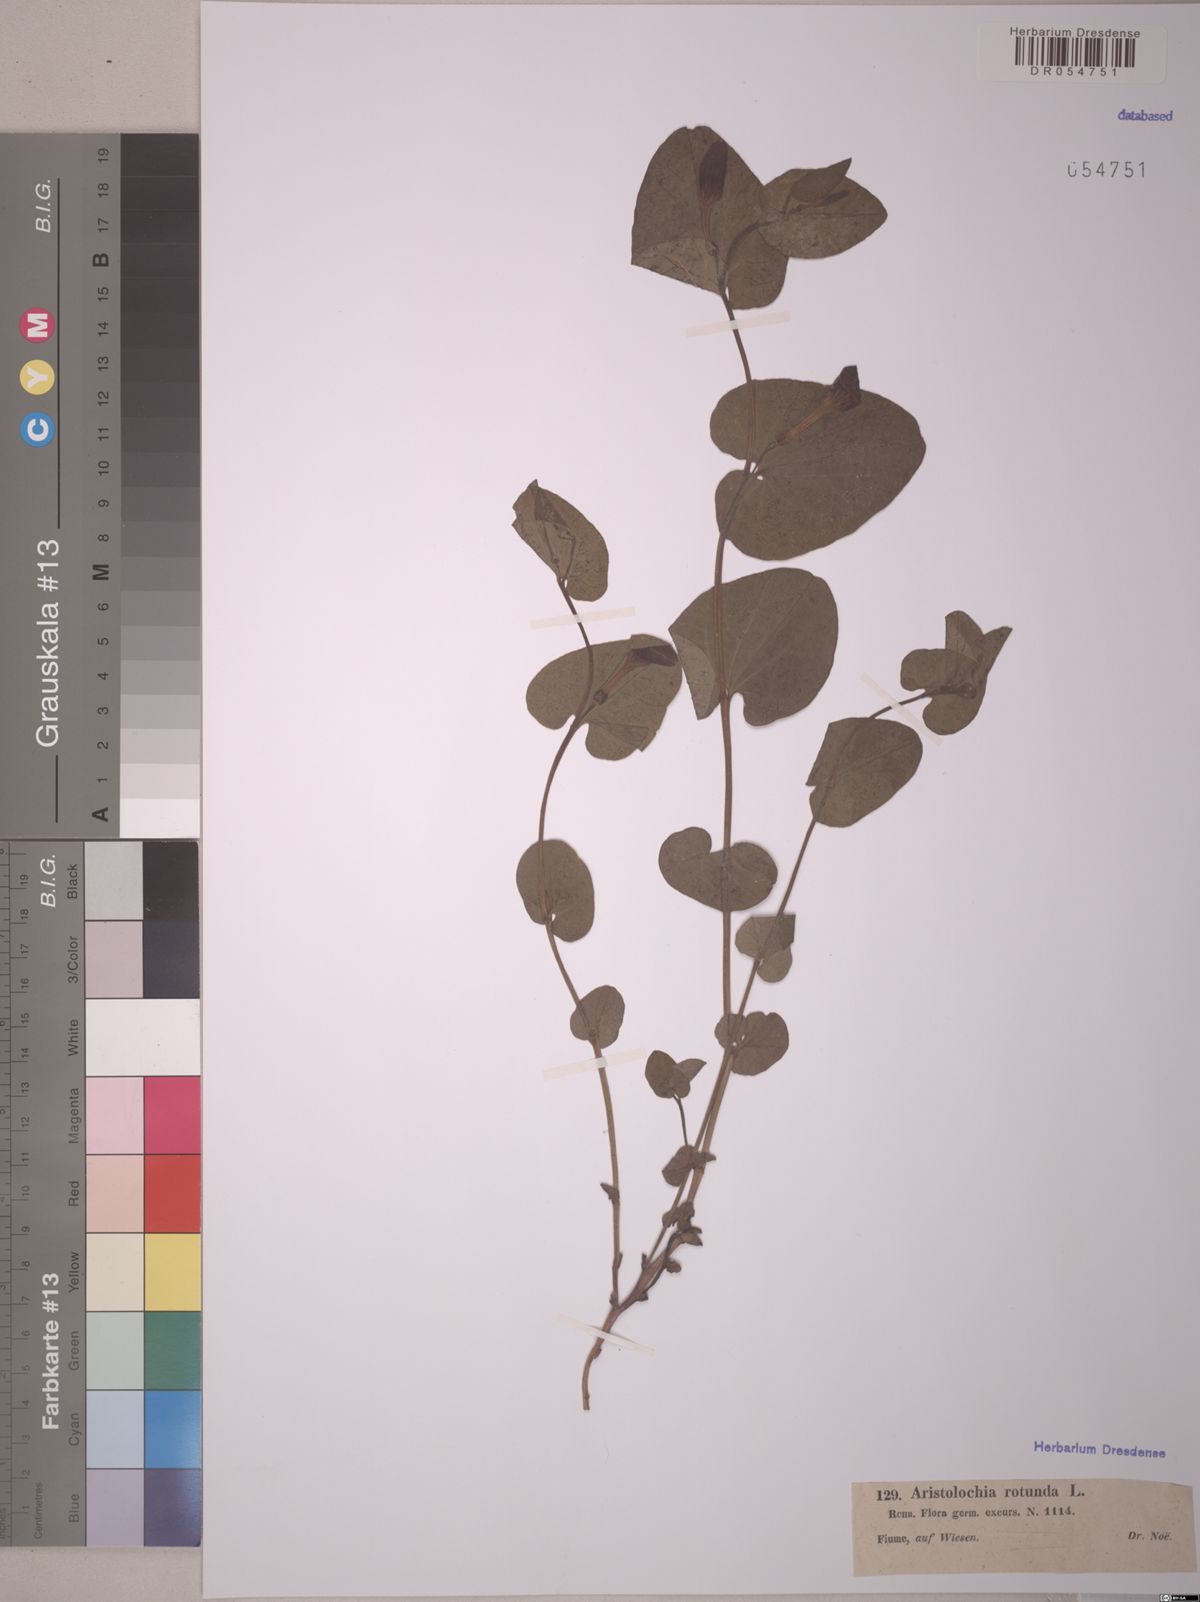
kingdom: Plantae
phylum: Tracheophyta
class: Magnoliopsida
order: Piperales
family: Aristolochiaceae
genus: Aristolochia
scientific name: Aristolochia rotunda
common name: Smearwort
